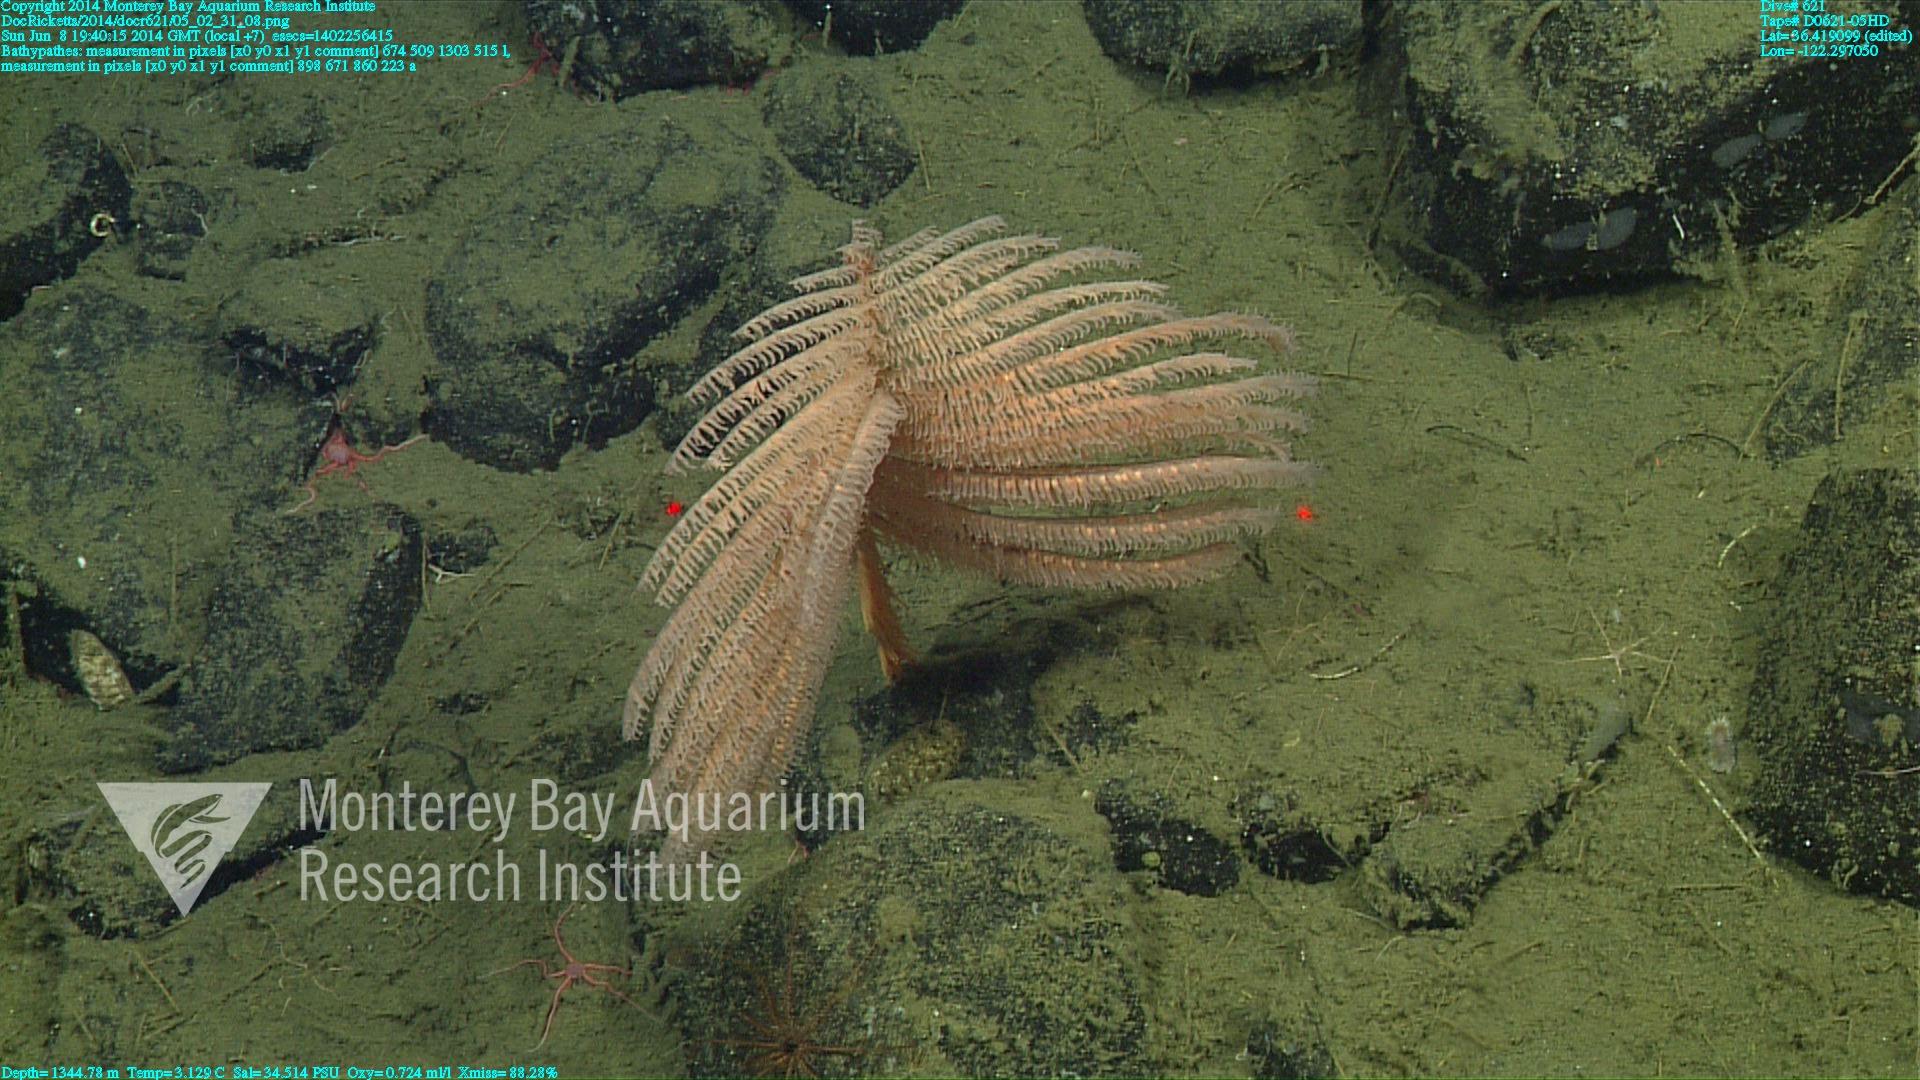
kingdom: Animalia
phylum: Cnidaria
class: Anthozoa
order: Antipatharia
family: Schizopathidae
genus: Bathypathes
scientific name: Bathypathes
